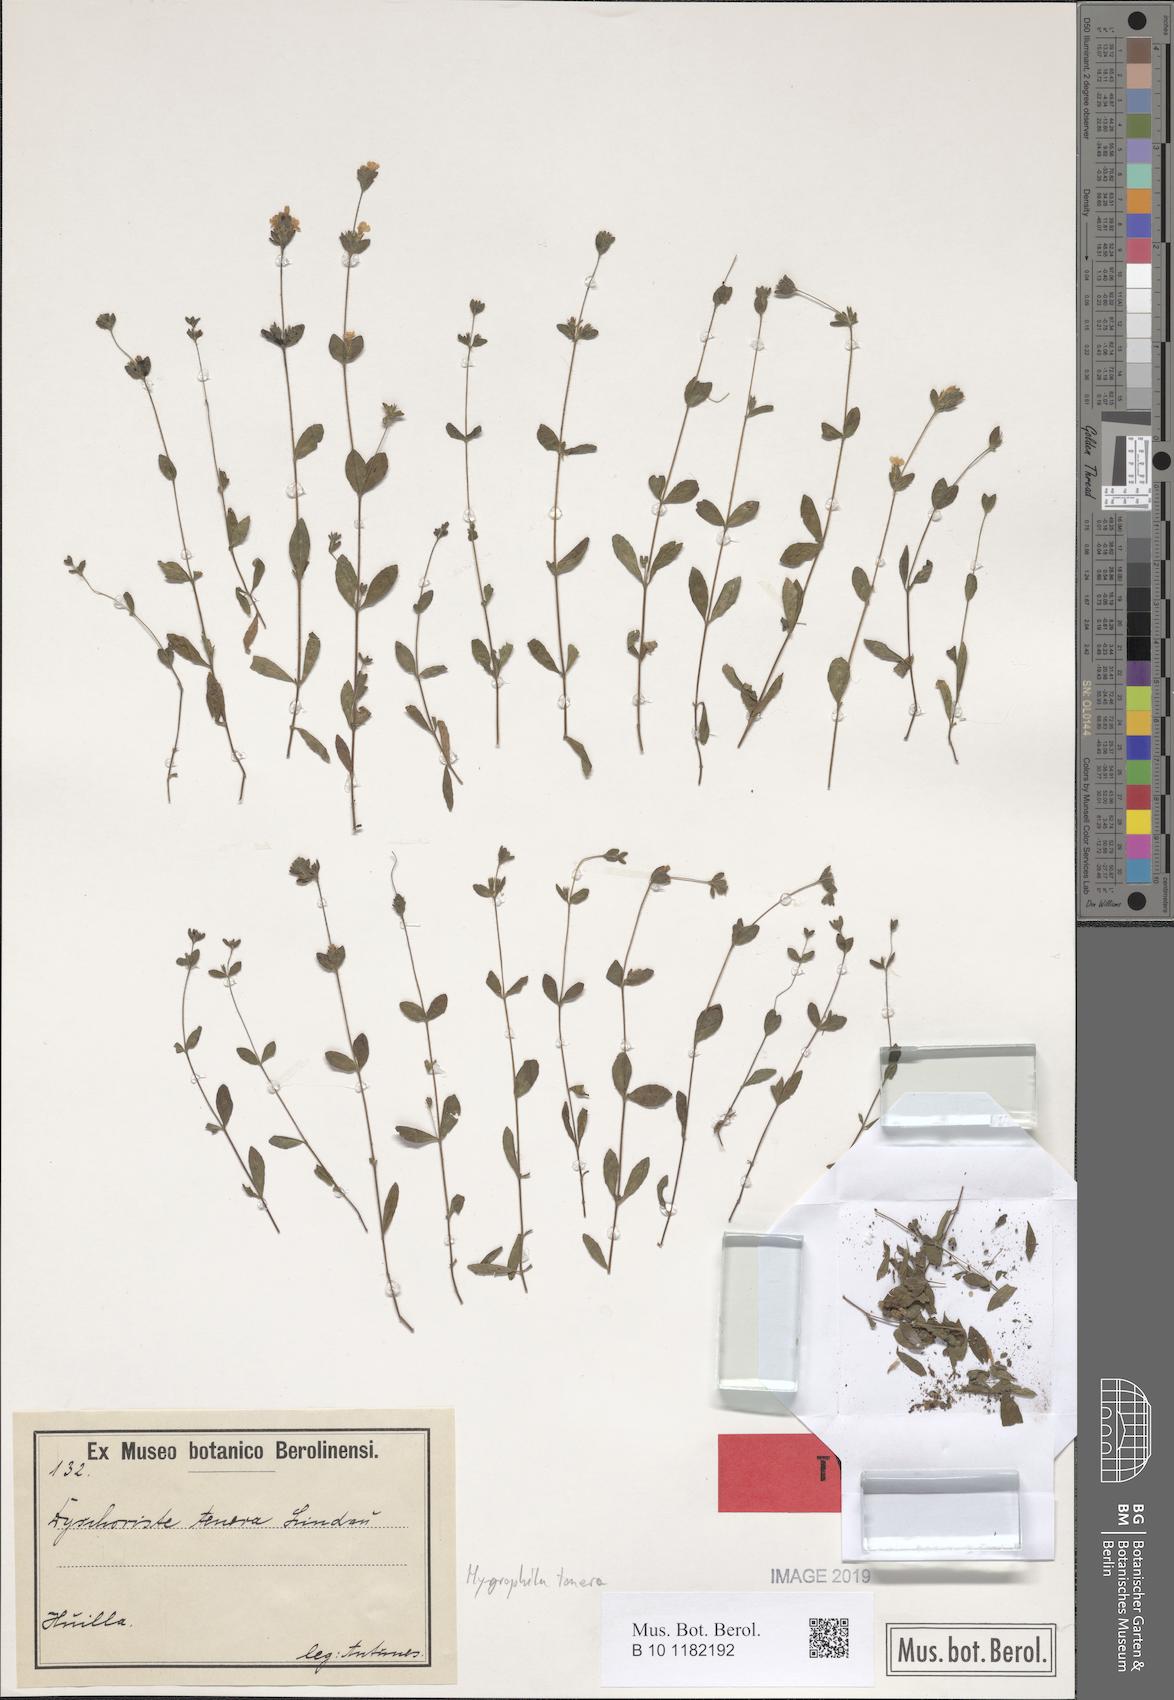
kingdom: Plantae
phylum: Tracheophyta
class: Magnoliopsida
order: Lamiales
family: Acanthaceae
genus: Hygrophila
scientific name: Hygrophila abyssinica
